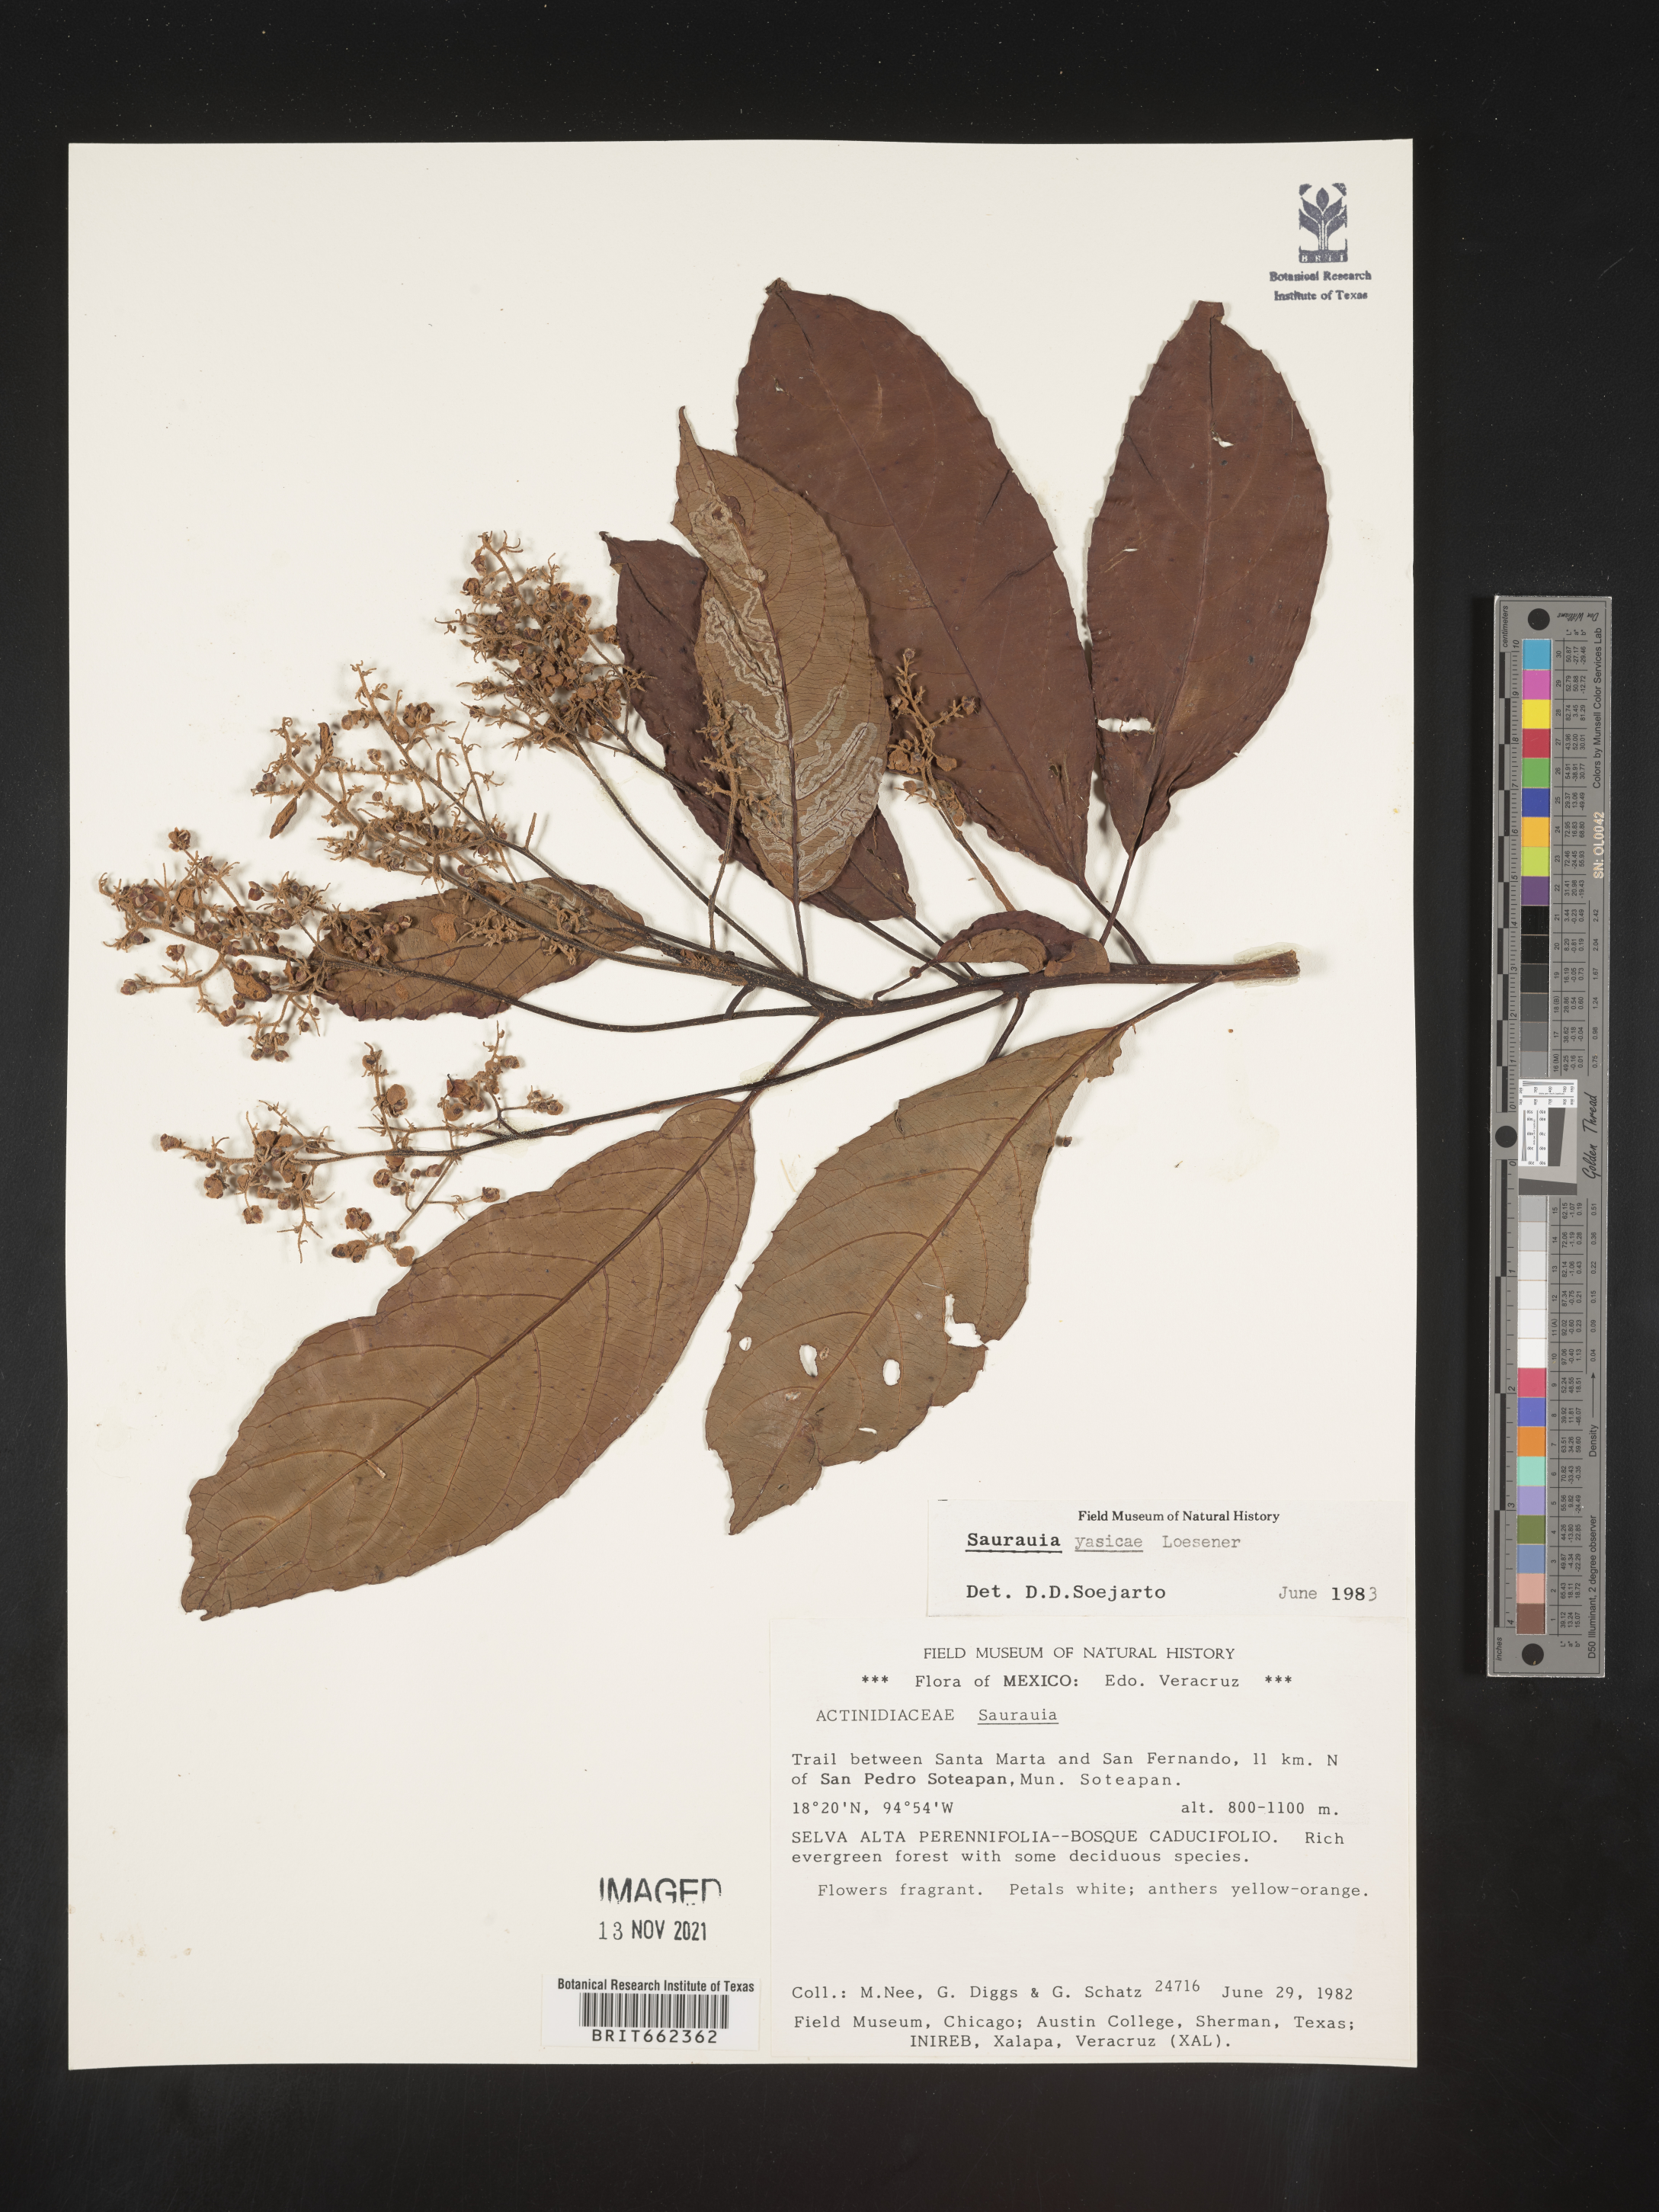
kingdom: Plantae
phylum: Tracheophyta
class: Magnoliopsida
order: Ericales
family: Actinidiaceae
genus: Saurauia
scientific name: Saurauia
